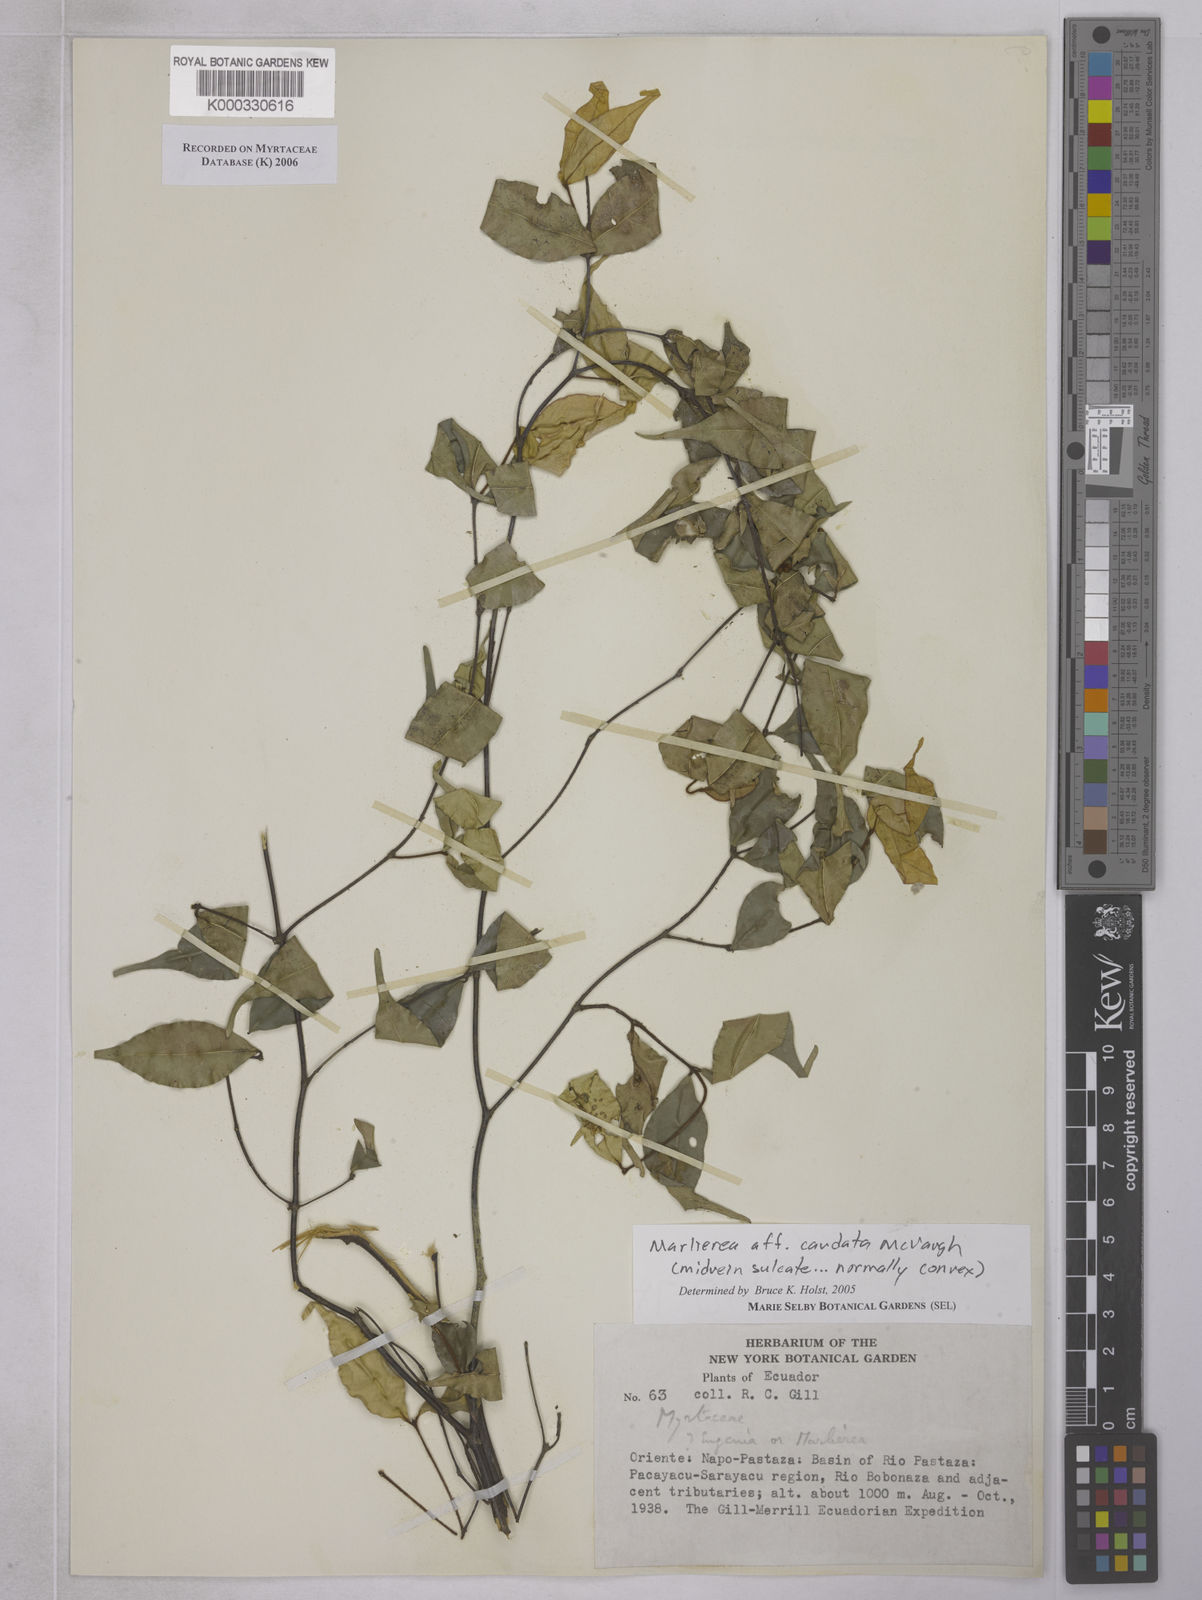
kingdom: Plantae
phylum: Tracheophyta
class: Magnoliopsida
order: Myrtales
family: Myrtaceae
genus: Myrcia
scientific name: Myrcia caudata
